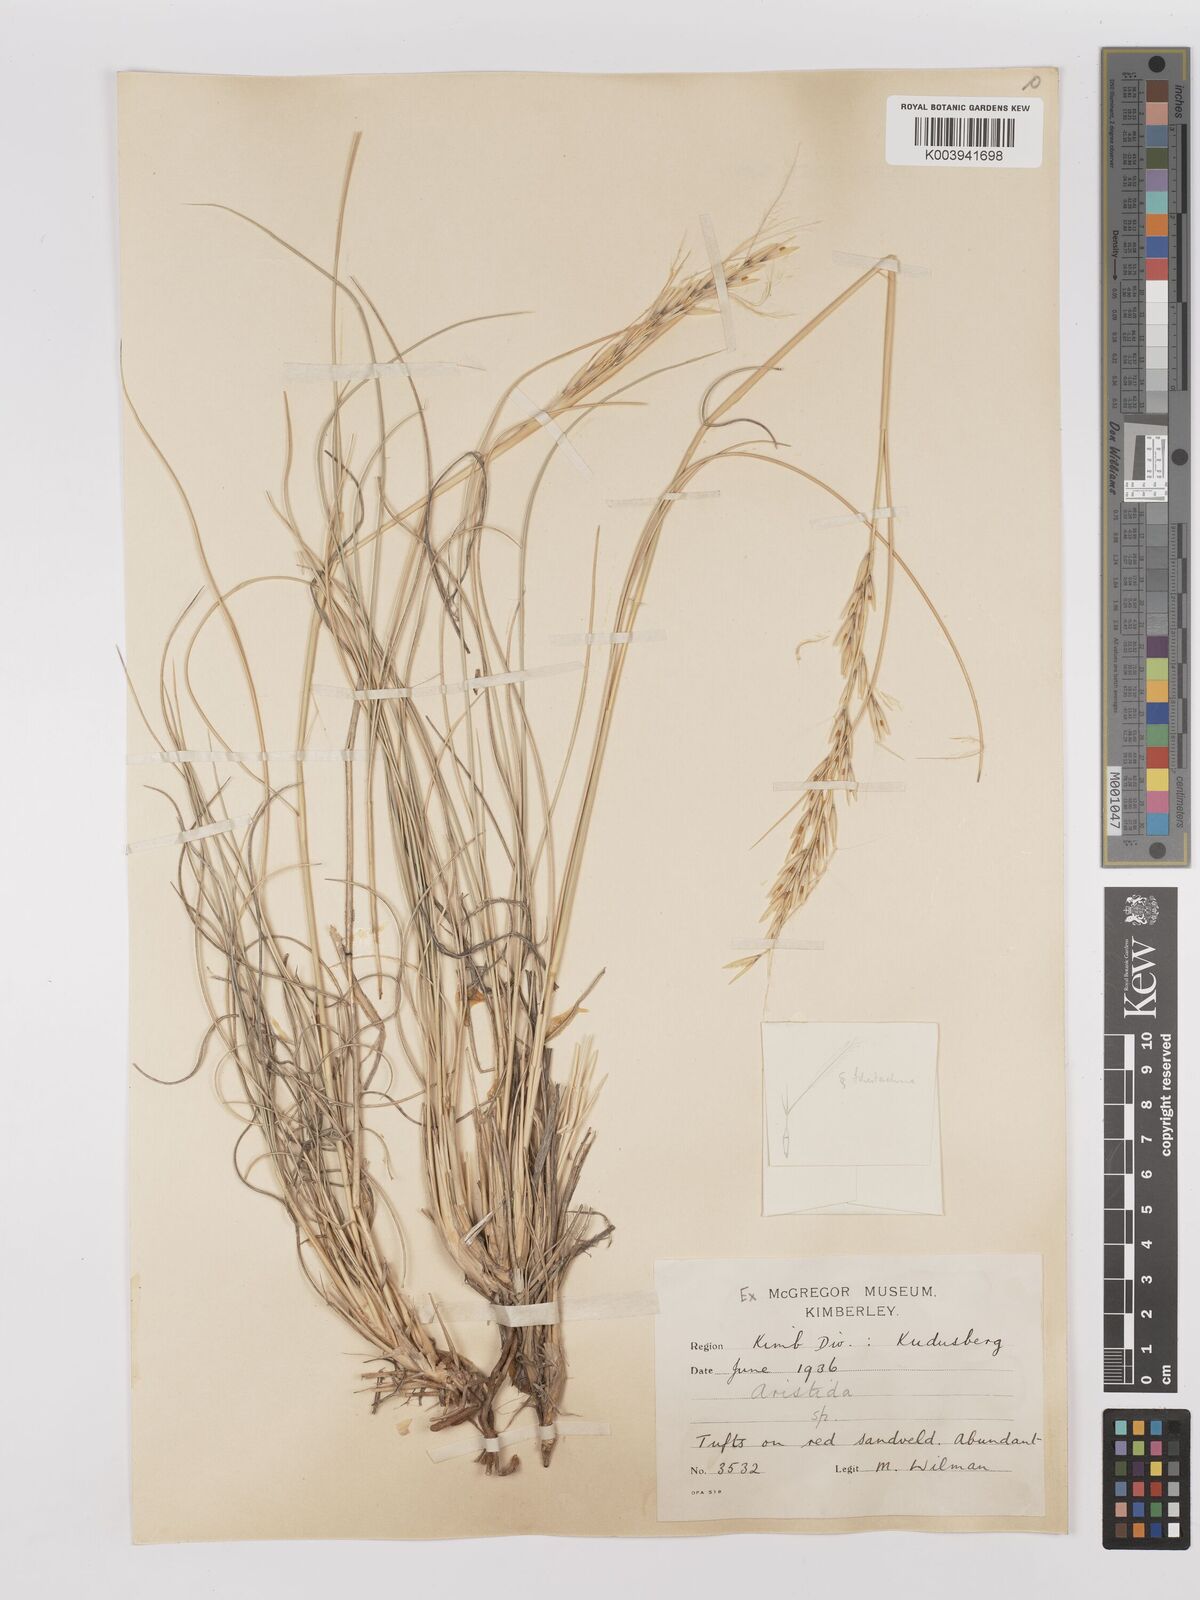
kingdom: Plantae
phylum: Tracheophyta
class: Liliopsida
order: Poales
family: Poaceae
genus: Stipagrostis
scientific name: Stipagrostis ciliata
